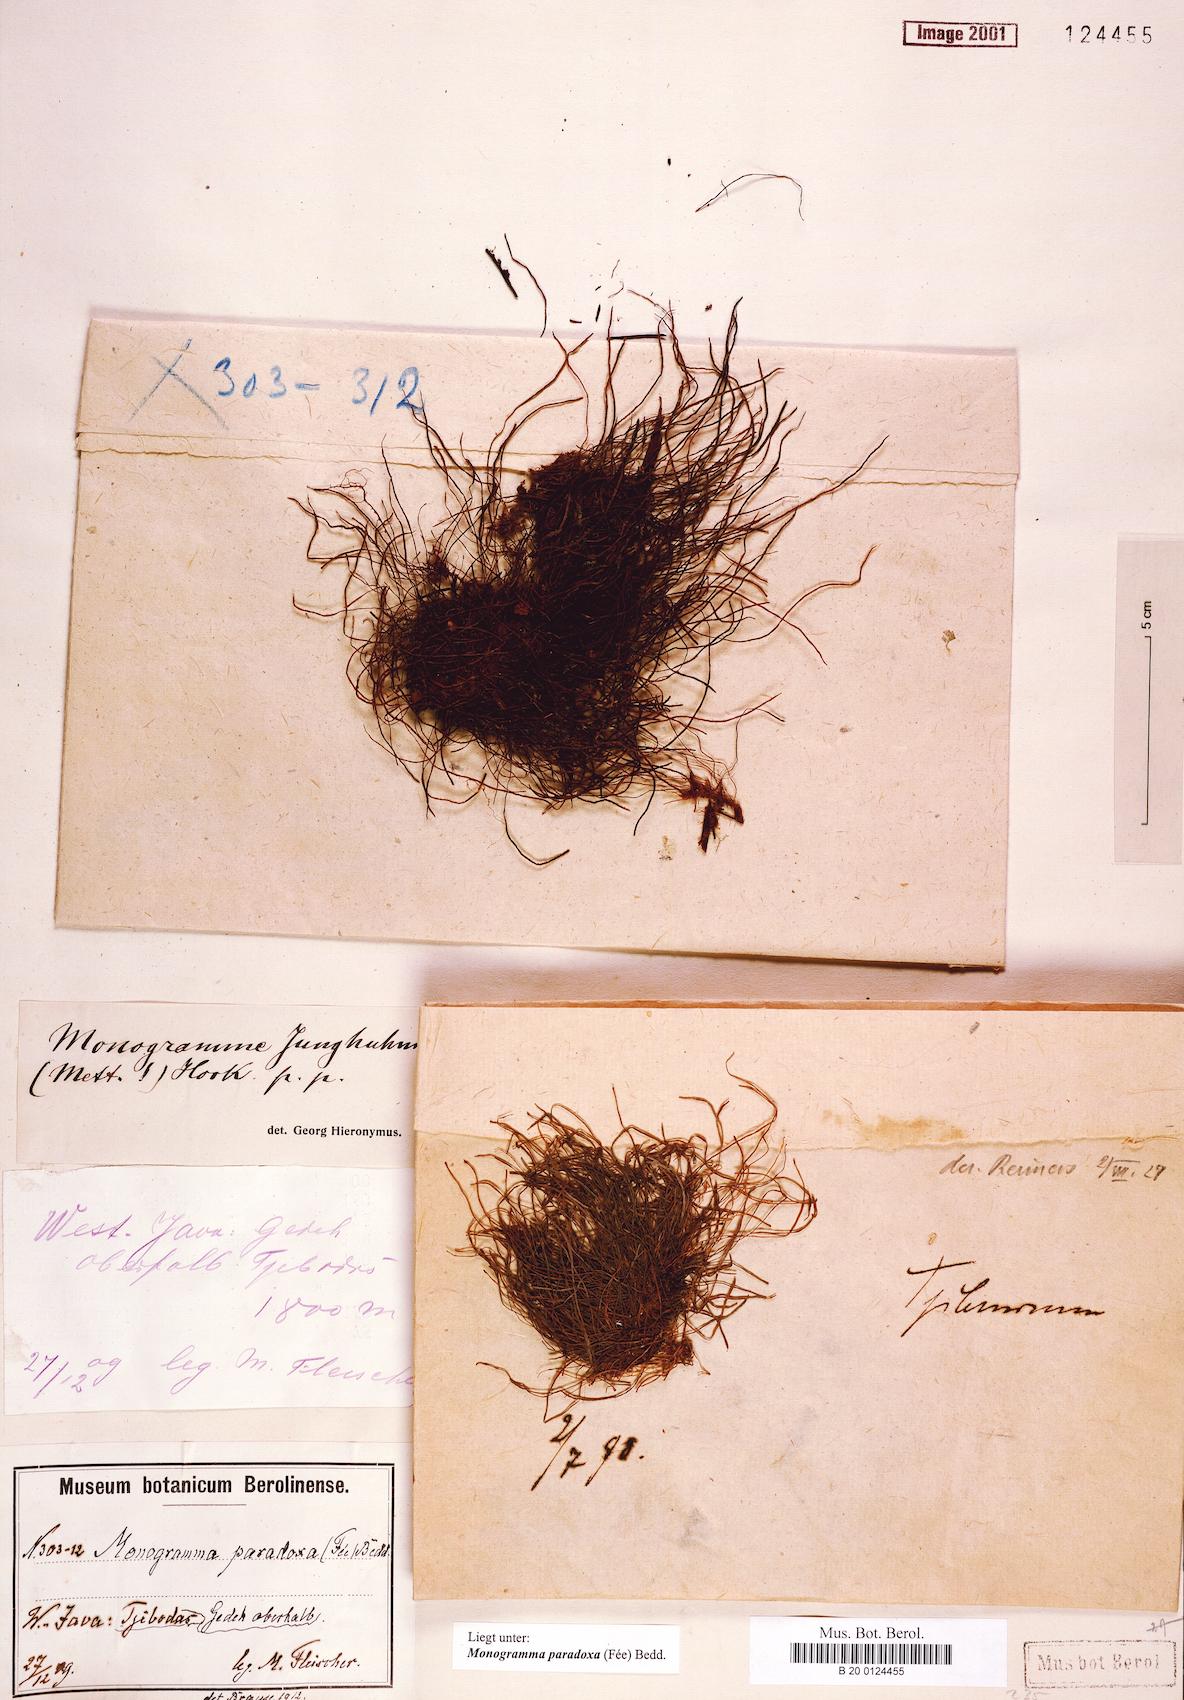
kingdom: Plantae
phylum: Tracheophyta
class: Polypodiopsida
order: Polypodiales
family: Pteridaceae
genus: Vaginularia
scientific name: Vaginularia paradoxa
